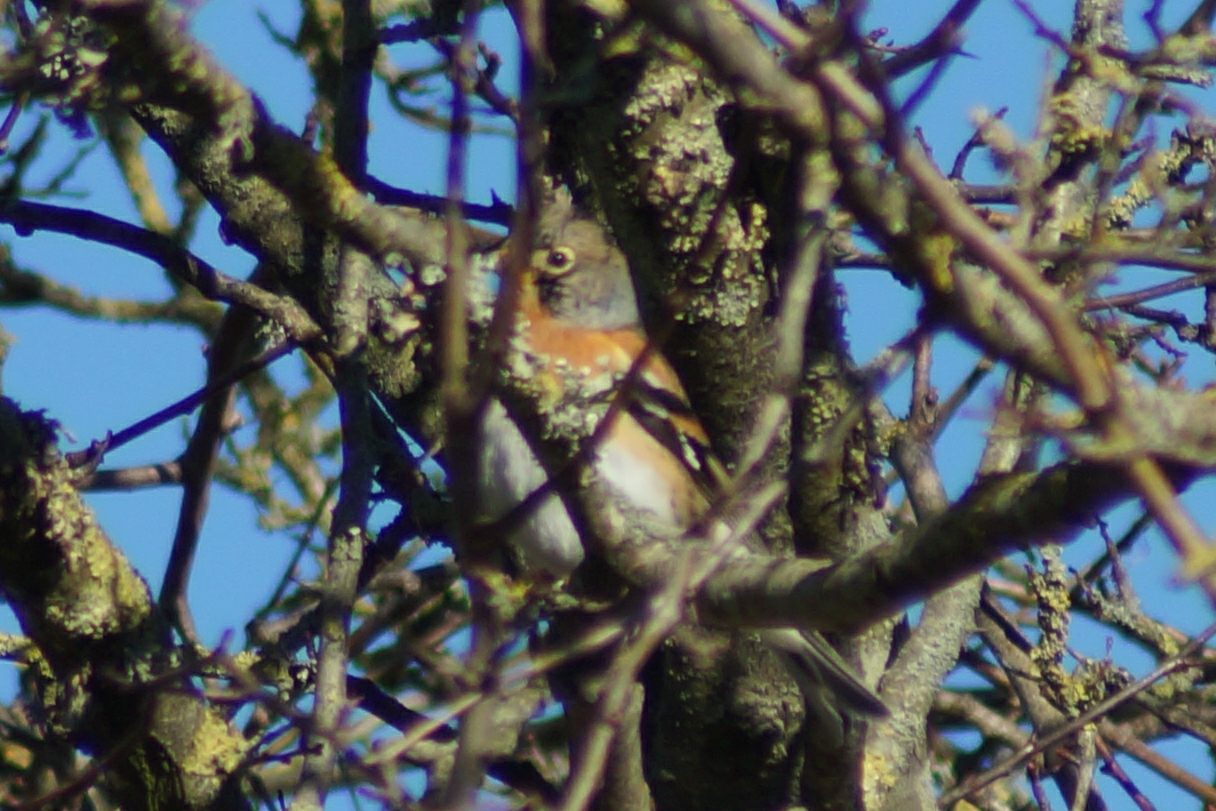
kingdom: Animalia
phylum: Chordata
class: Aves
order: Passeriformes
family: Fringillidae
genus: Fringilla
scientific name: Fringilla montifringilla
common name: Kvækerfinke
